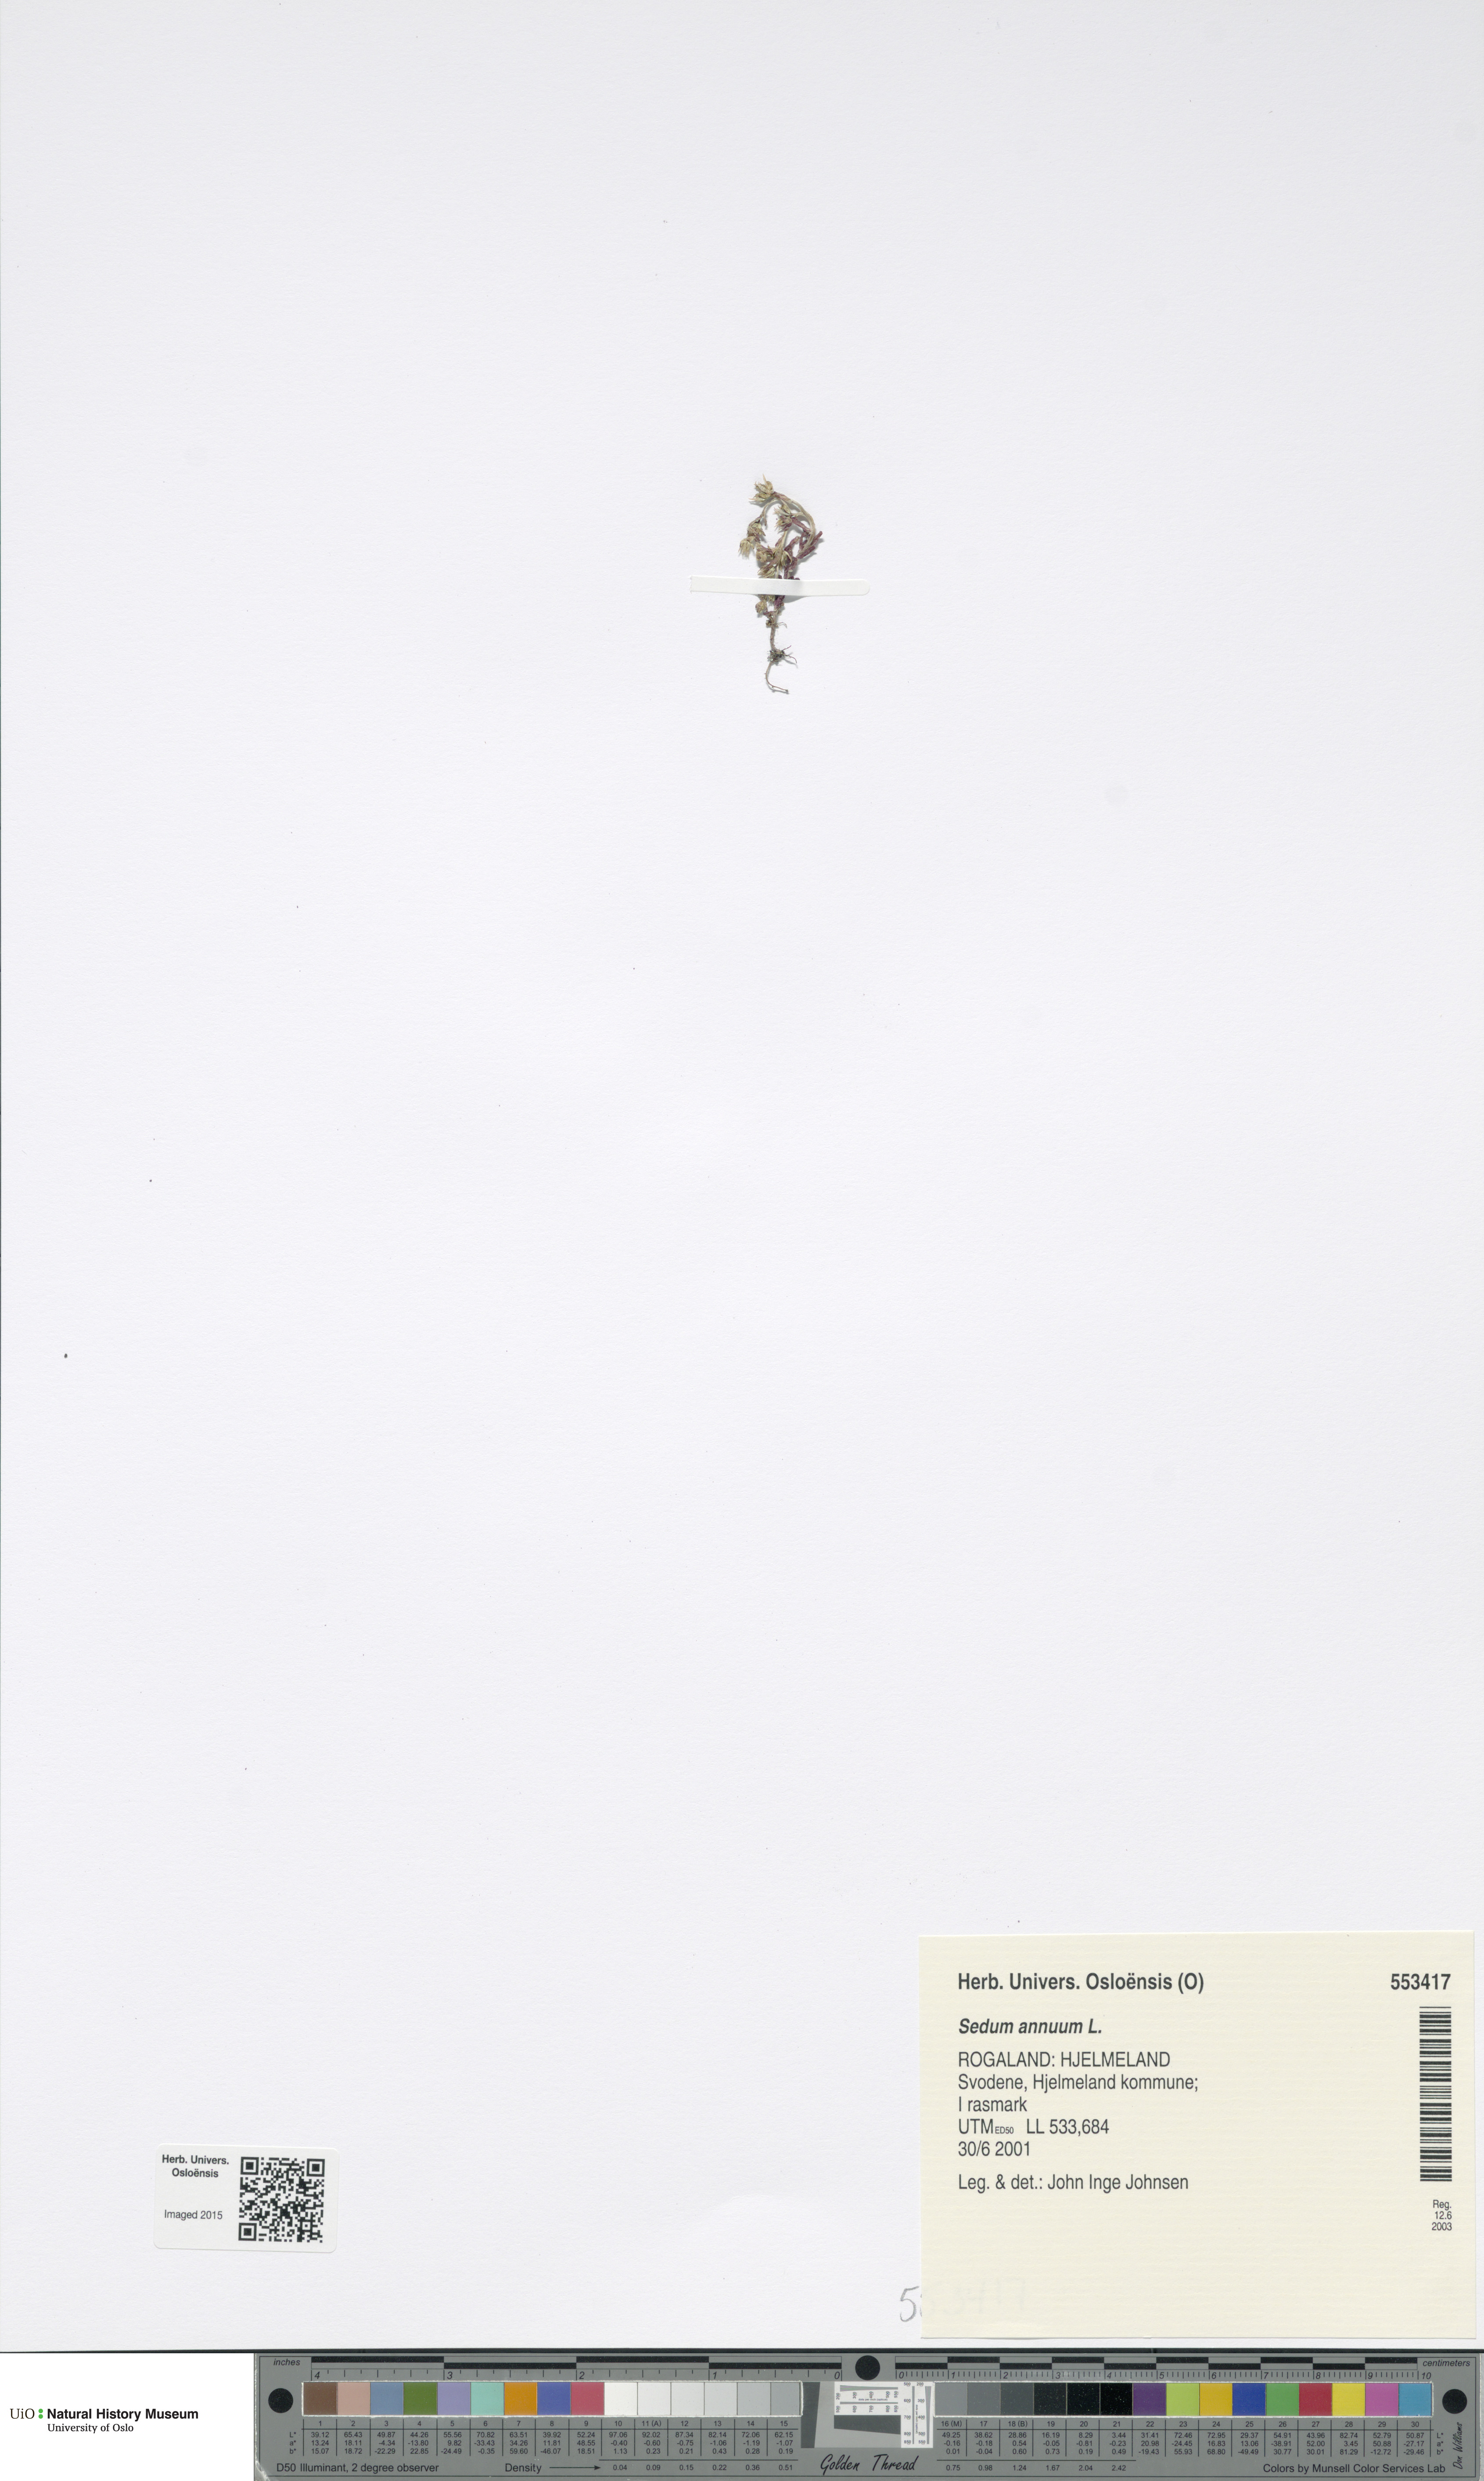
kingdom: Plantae
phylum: Tracheophyta
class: Magnoliopsida
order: Saxifragales
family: Crassulaceae
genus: Sedum
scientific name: Sedum annuum
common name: Annual stonecrop
